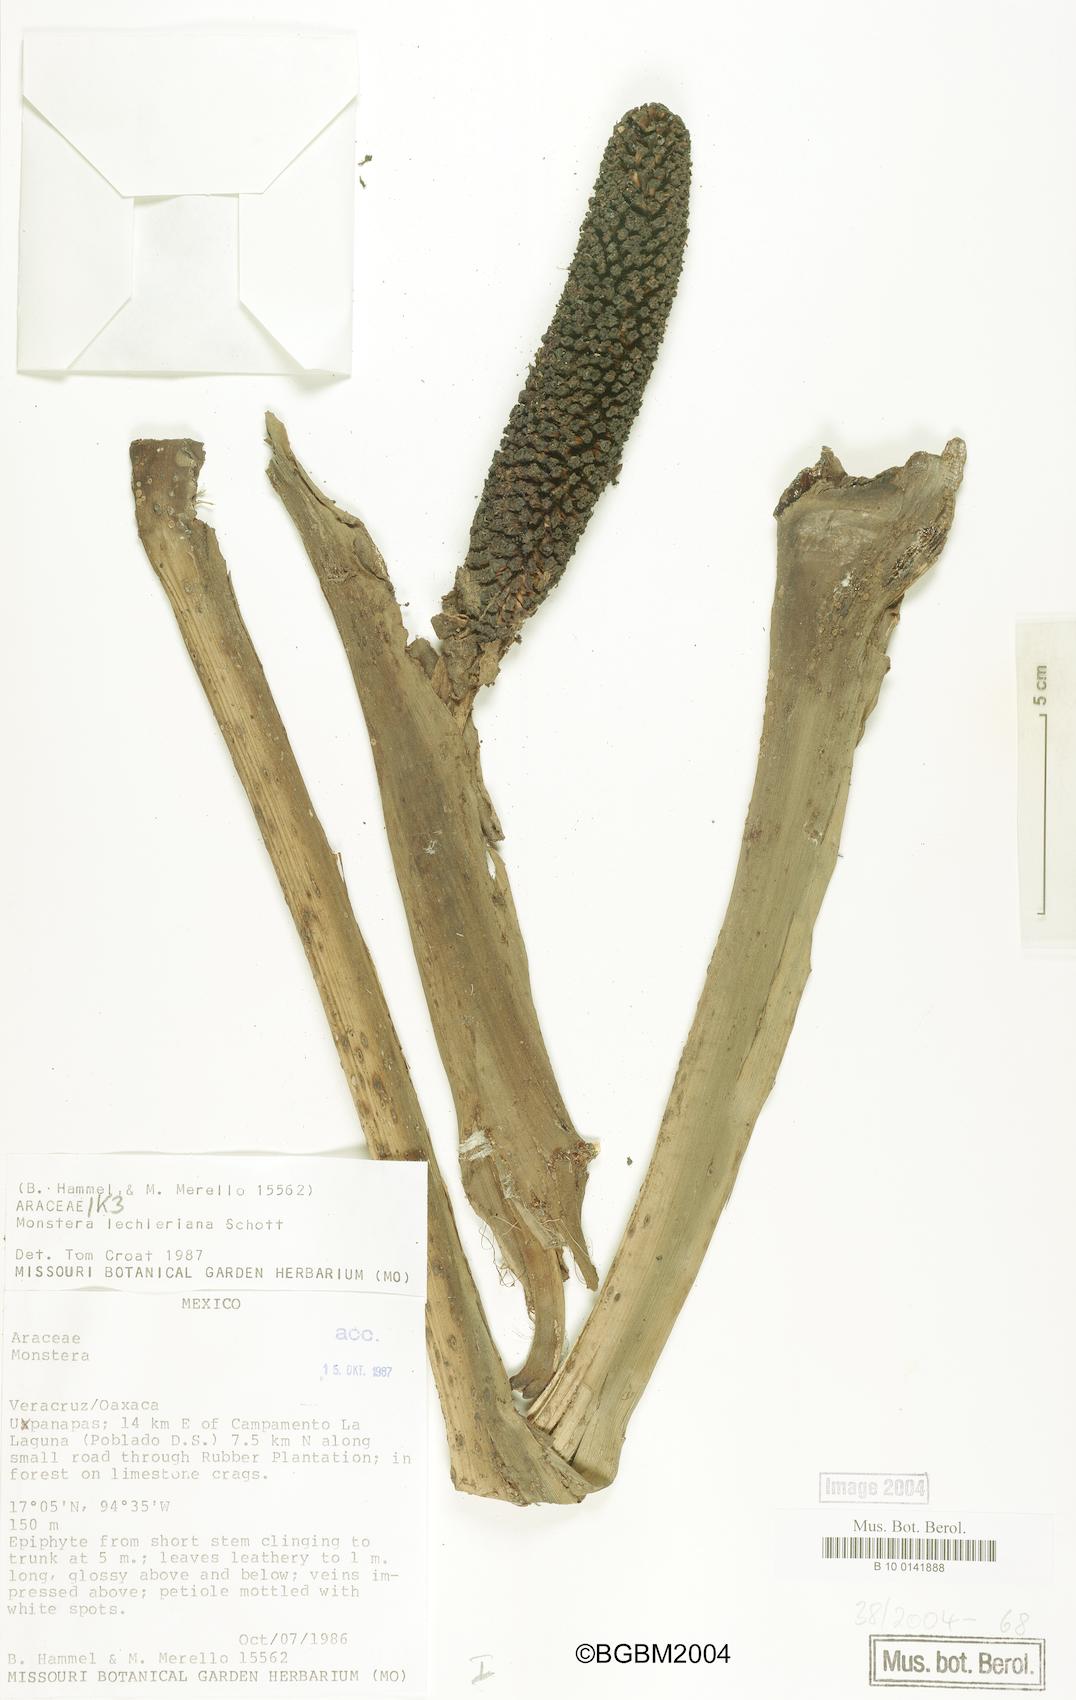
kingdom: Plantae
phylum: Tracheophyta
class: Liliopsida
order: Alismatales
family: Araceae
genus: Monstera
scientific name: Monstera lechleriana
